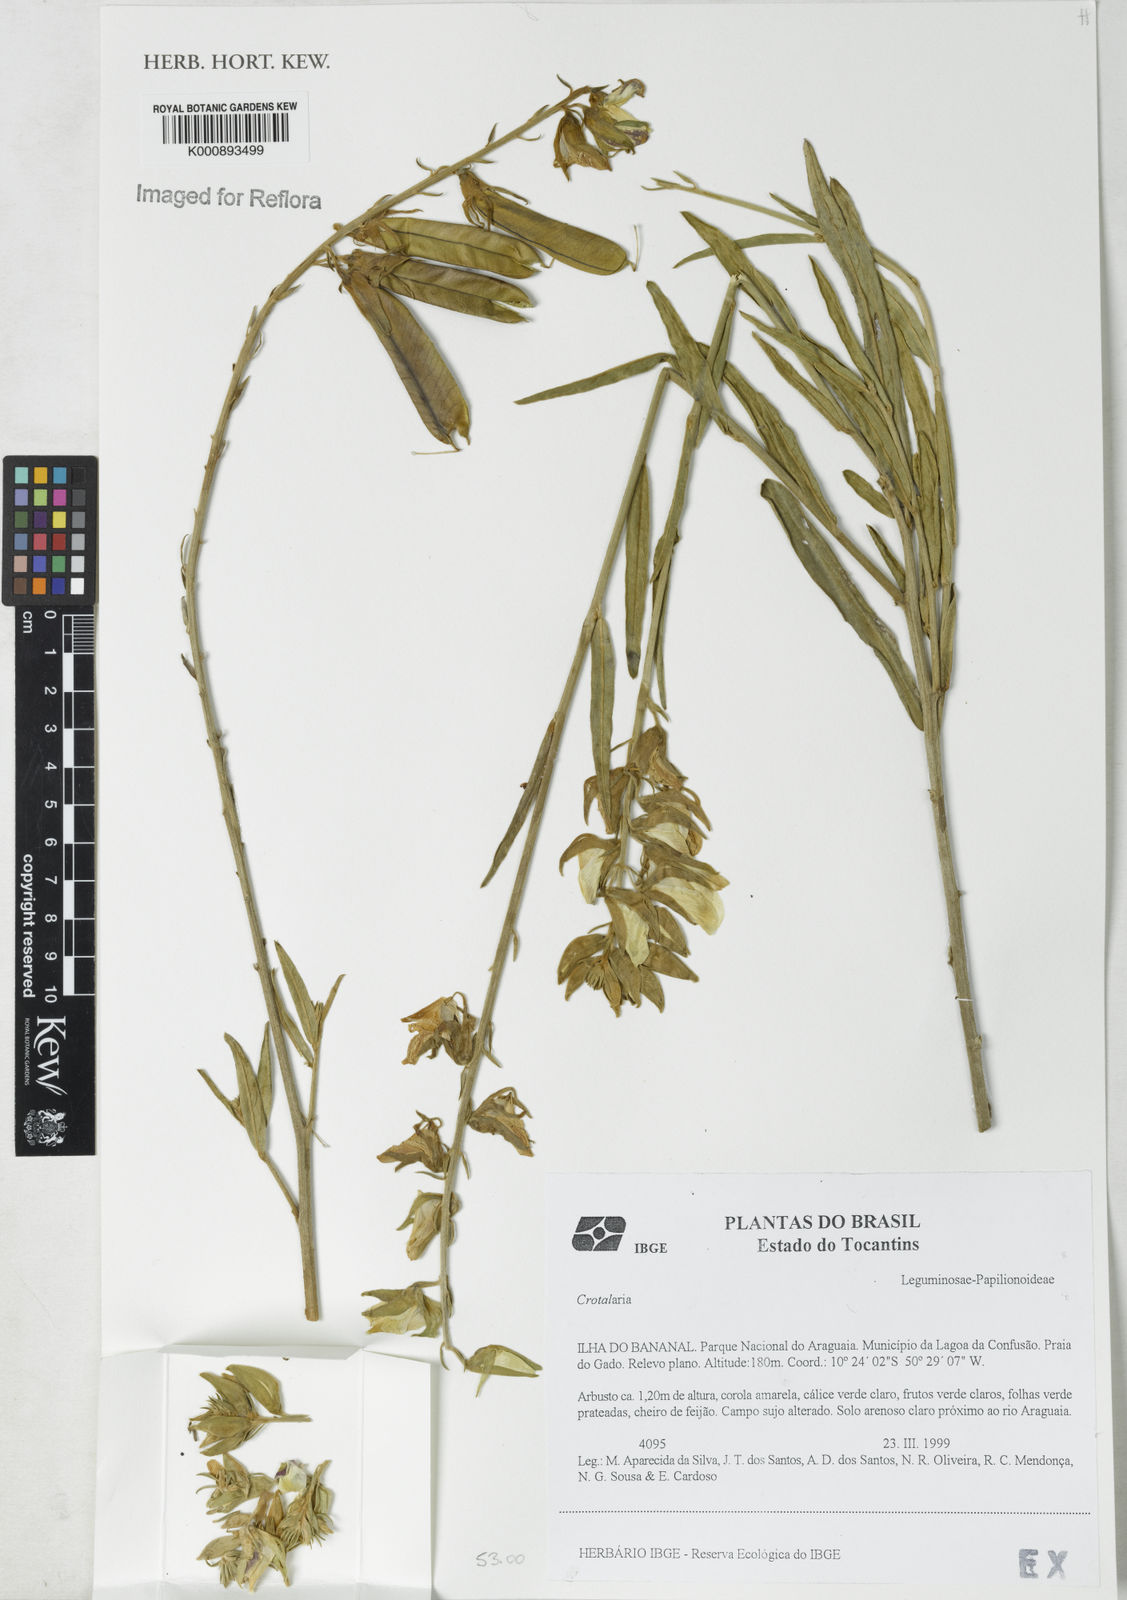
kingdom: Plantae
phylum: Tracheophyta
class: Magnoliopsida
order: Fabales
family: Fabaceae
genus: Crotalaria
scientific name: Crotalaria martiana
